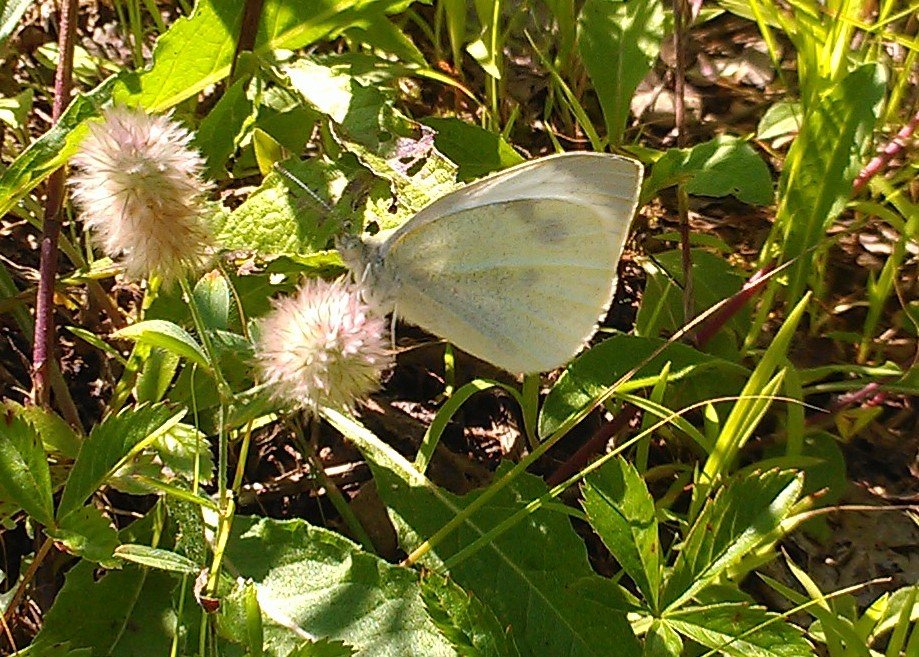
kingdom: Animalia
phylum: Arthropoda
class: Insecta
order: Lepidoptera
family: Pieridae
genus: Pieris
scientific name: Pieris rapae
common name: Cabbage White
